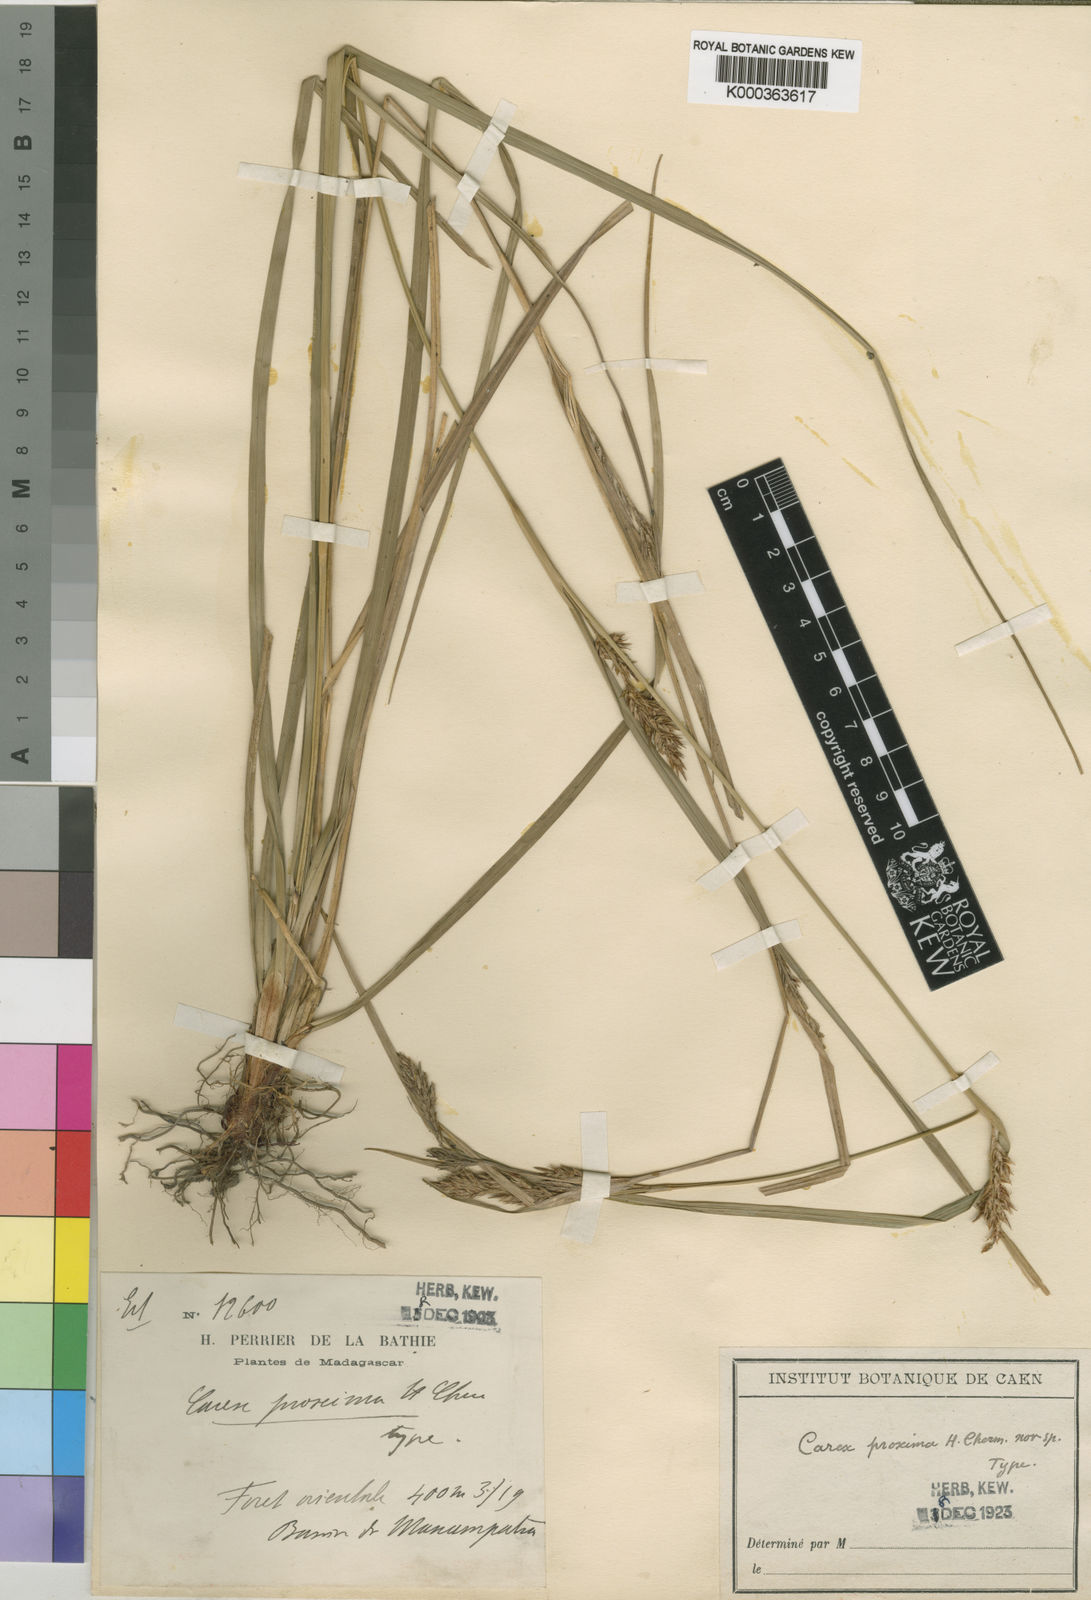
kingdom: Plantae
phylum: Tracheophyta
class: Liliopsida
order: Poales
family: Cyperaceae
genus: Carex
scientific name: Carex proxima
